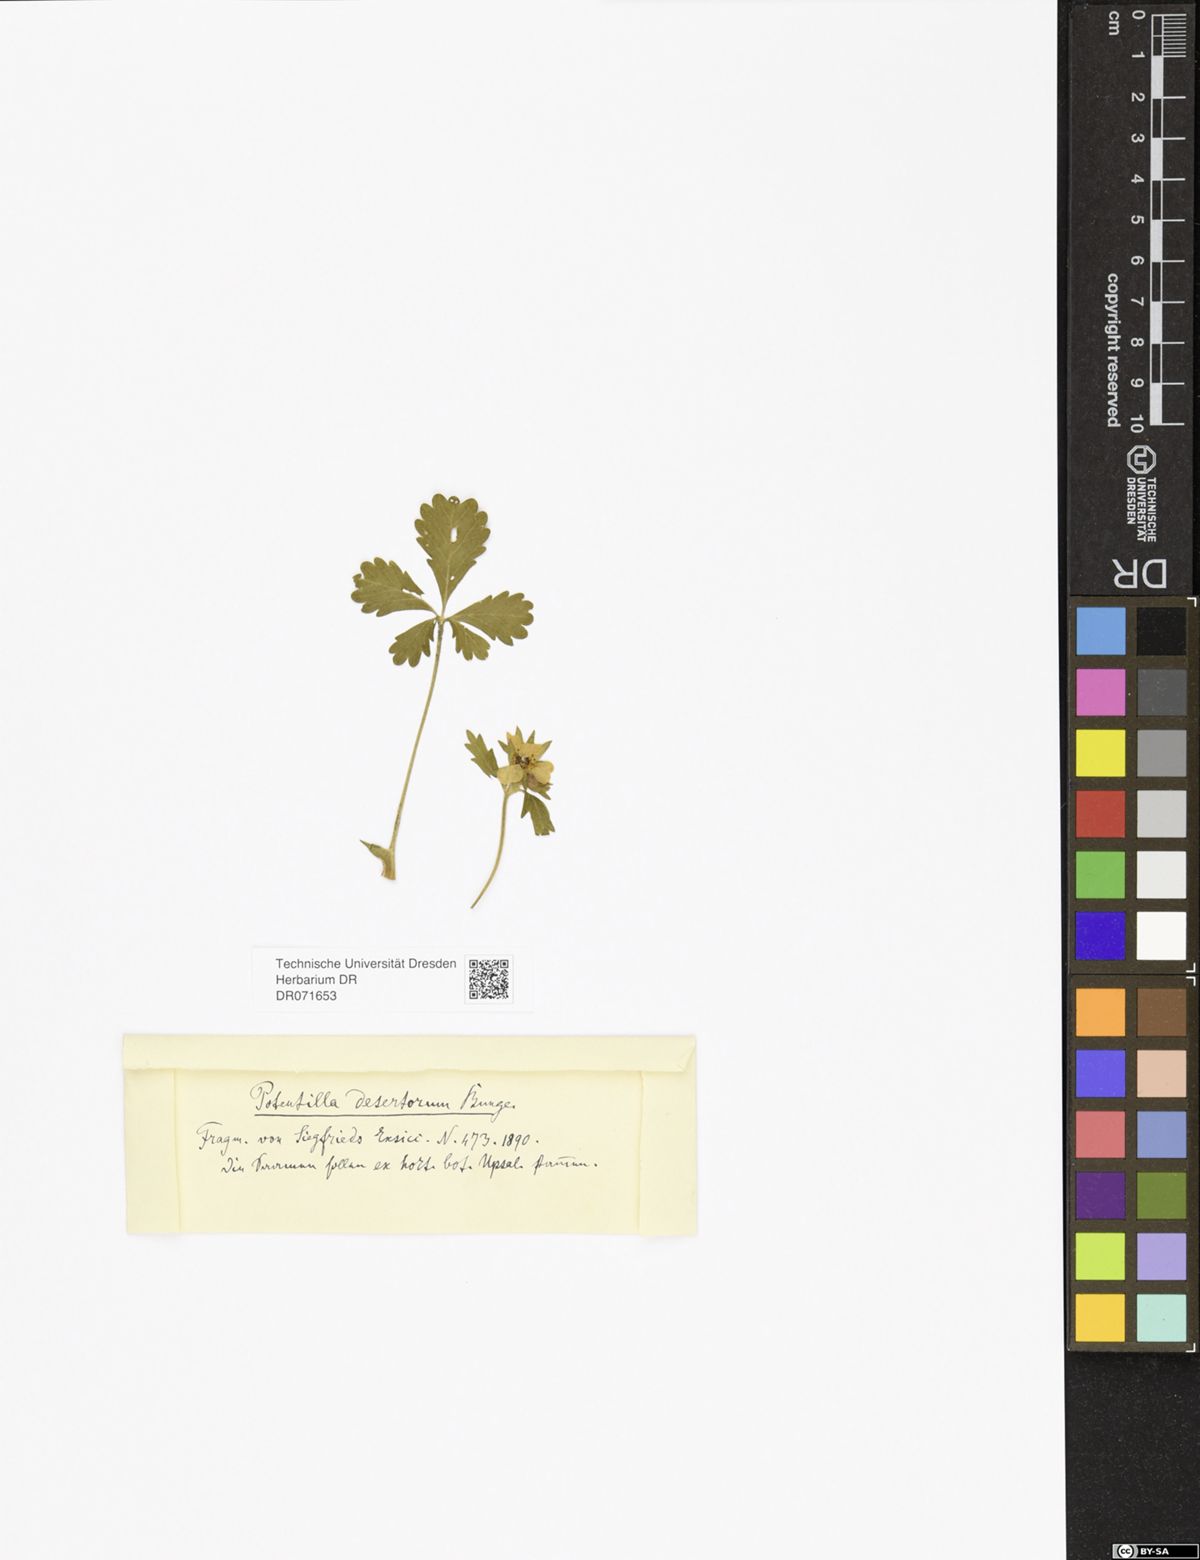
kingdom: Plantae
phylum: Tracheophyta
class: Magnoliopsida
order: Rosales
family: Rosaceae
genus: Potentilla
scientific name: Potentilla desertorum
